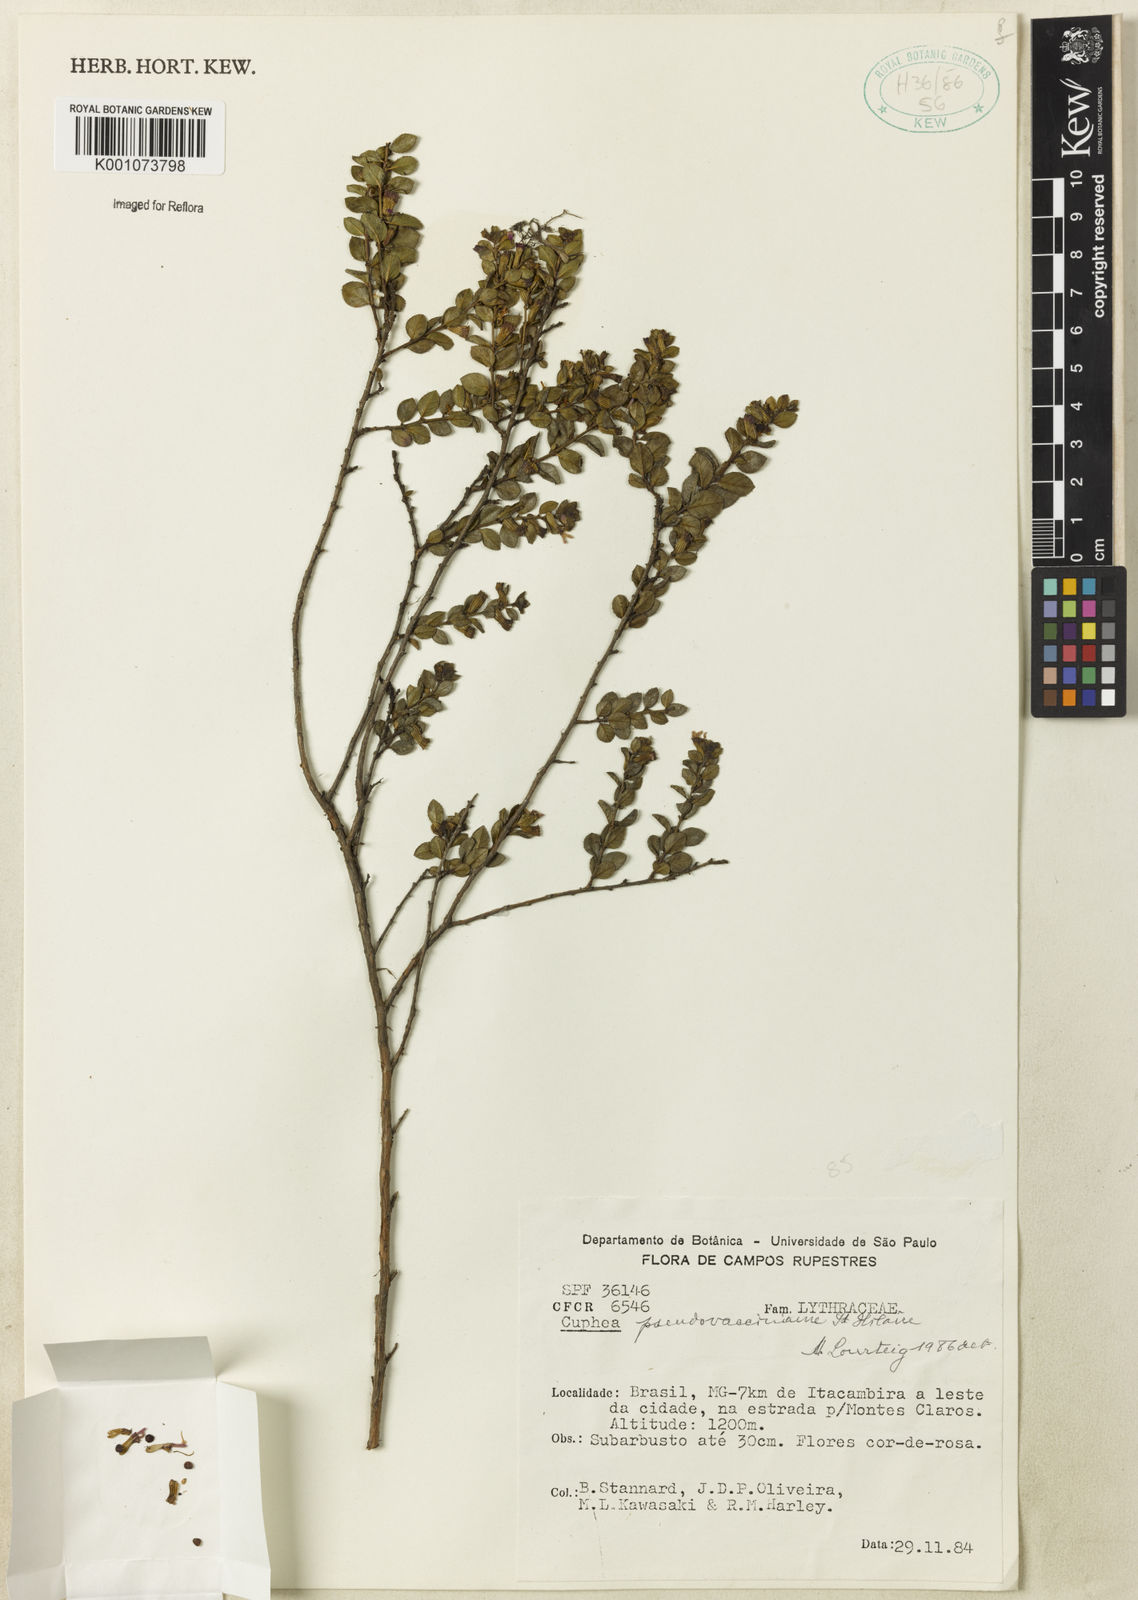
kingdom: Plantae
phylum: Tracheophyta
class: Magnoliopsida
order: Myrtales
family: Lythraceae
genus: Cuphea
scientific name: Cuphea pseudovaccinium
